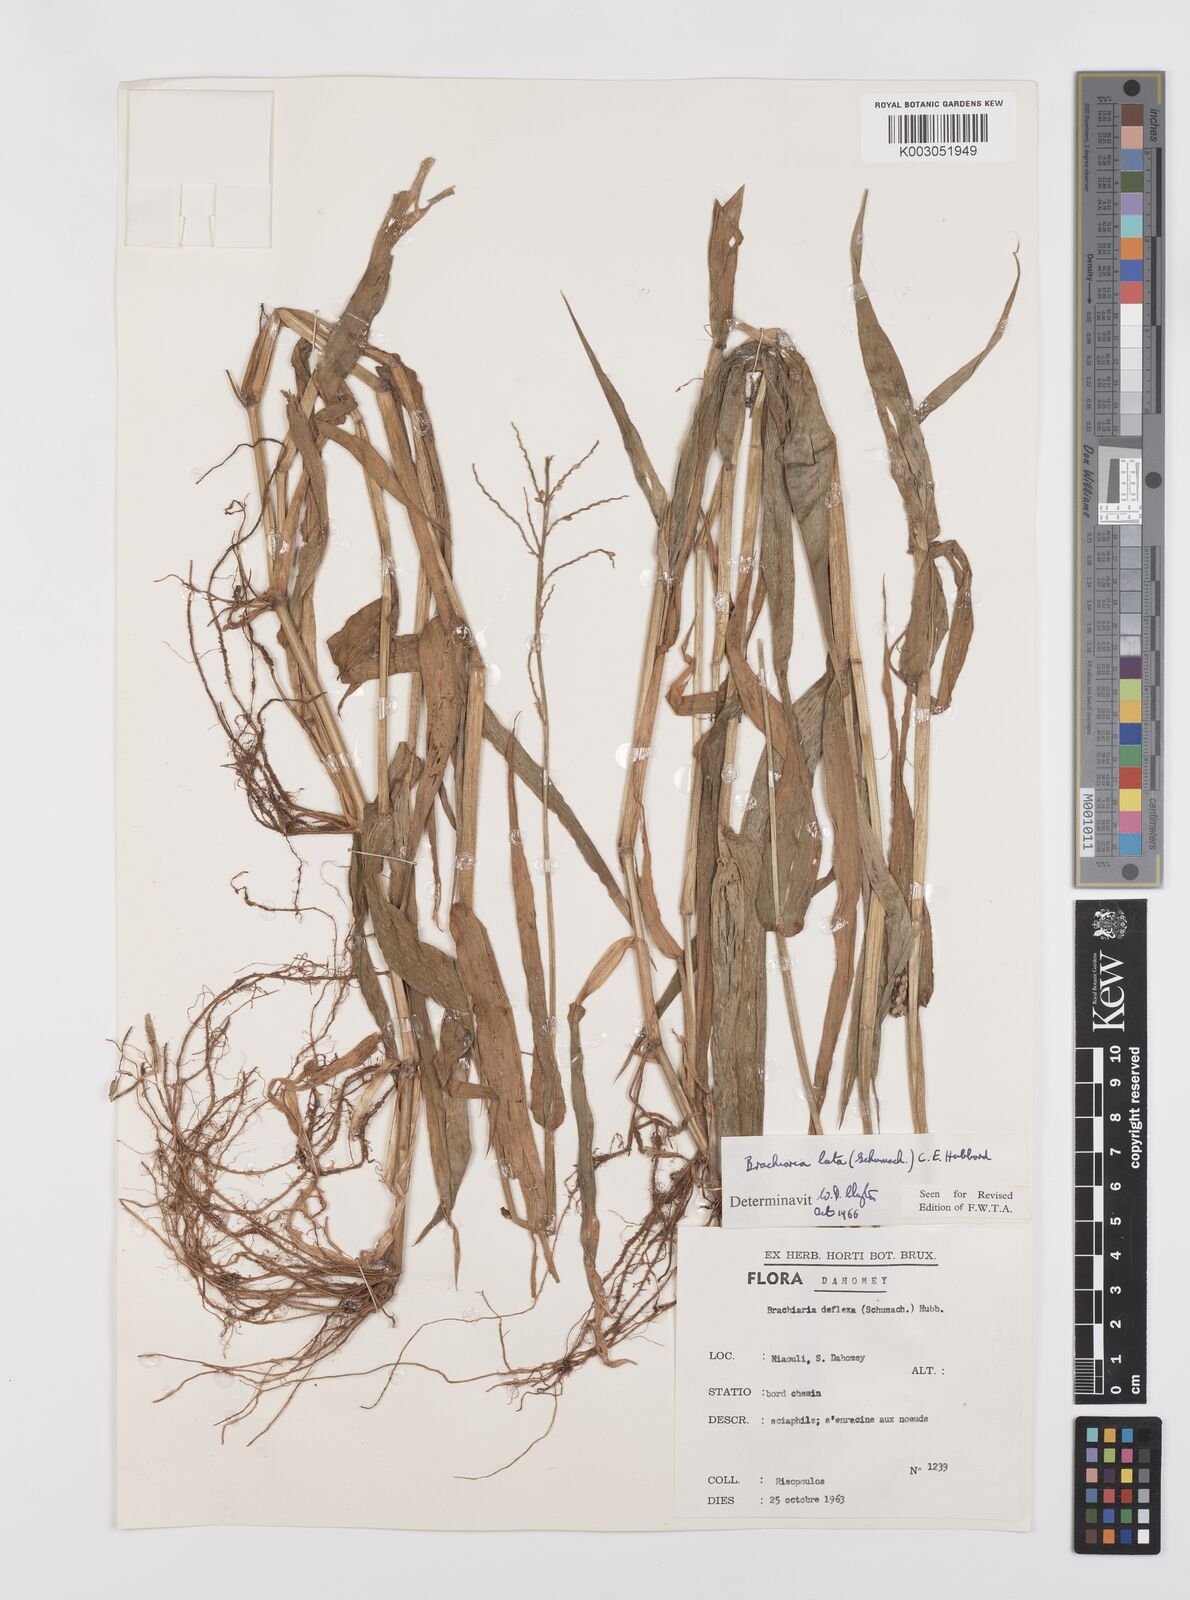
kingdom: Plantae
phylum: Tracheophyta
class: Liliopsida
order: Poales
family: Poaceae
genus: Urochloa
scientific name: Urochloa lata
